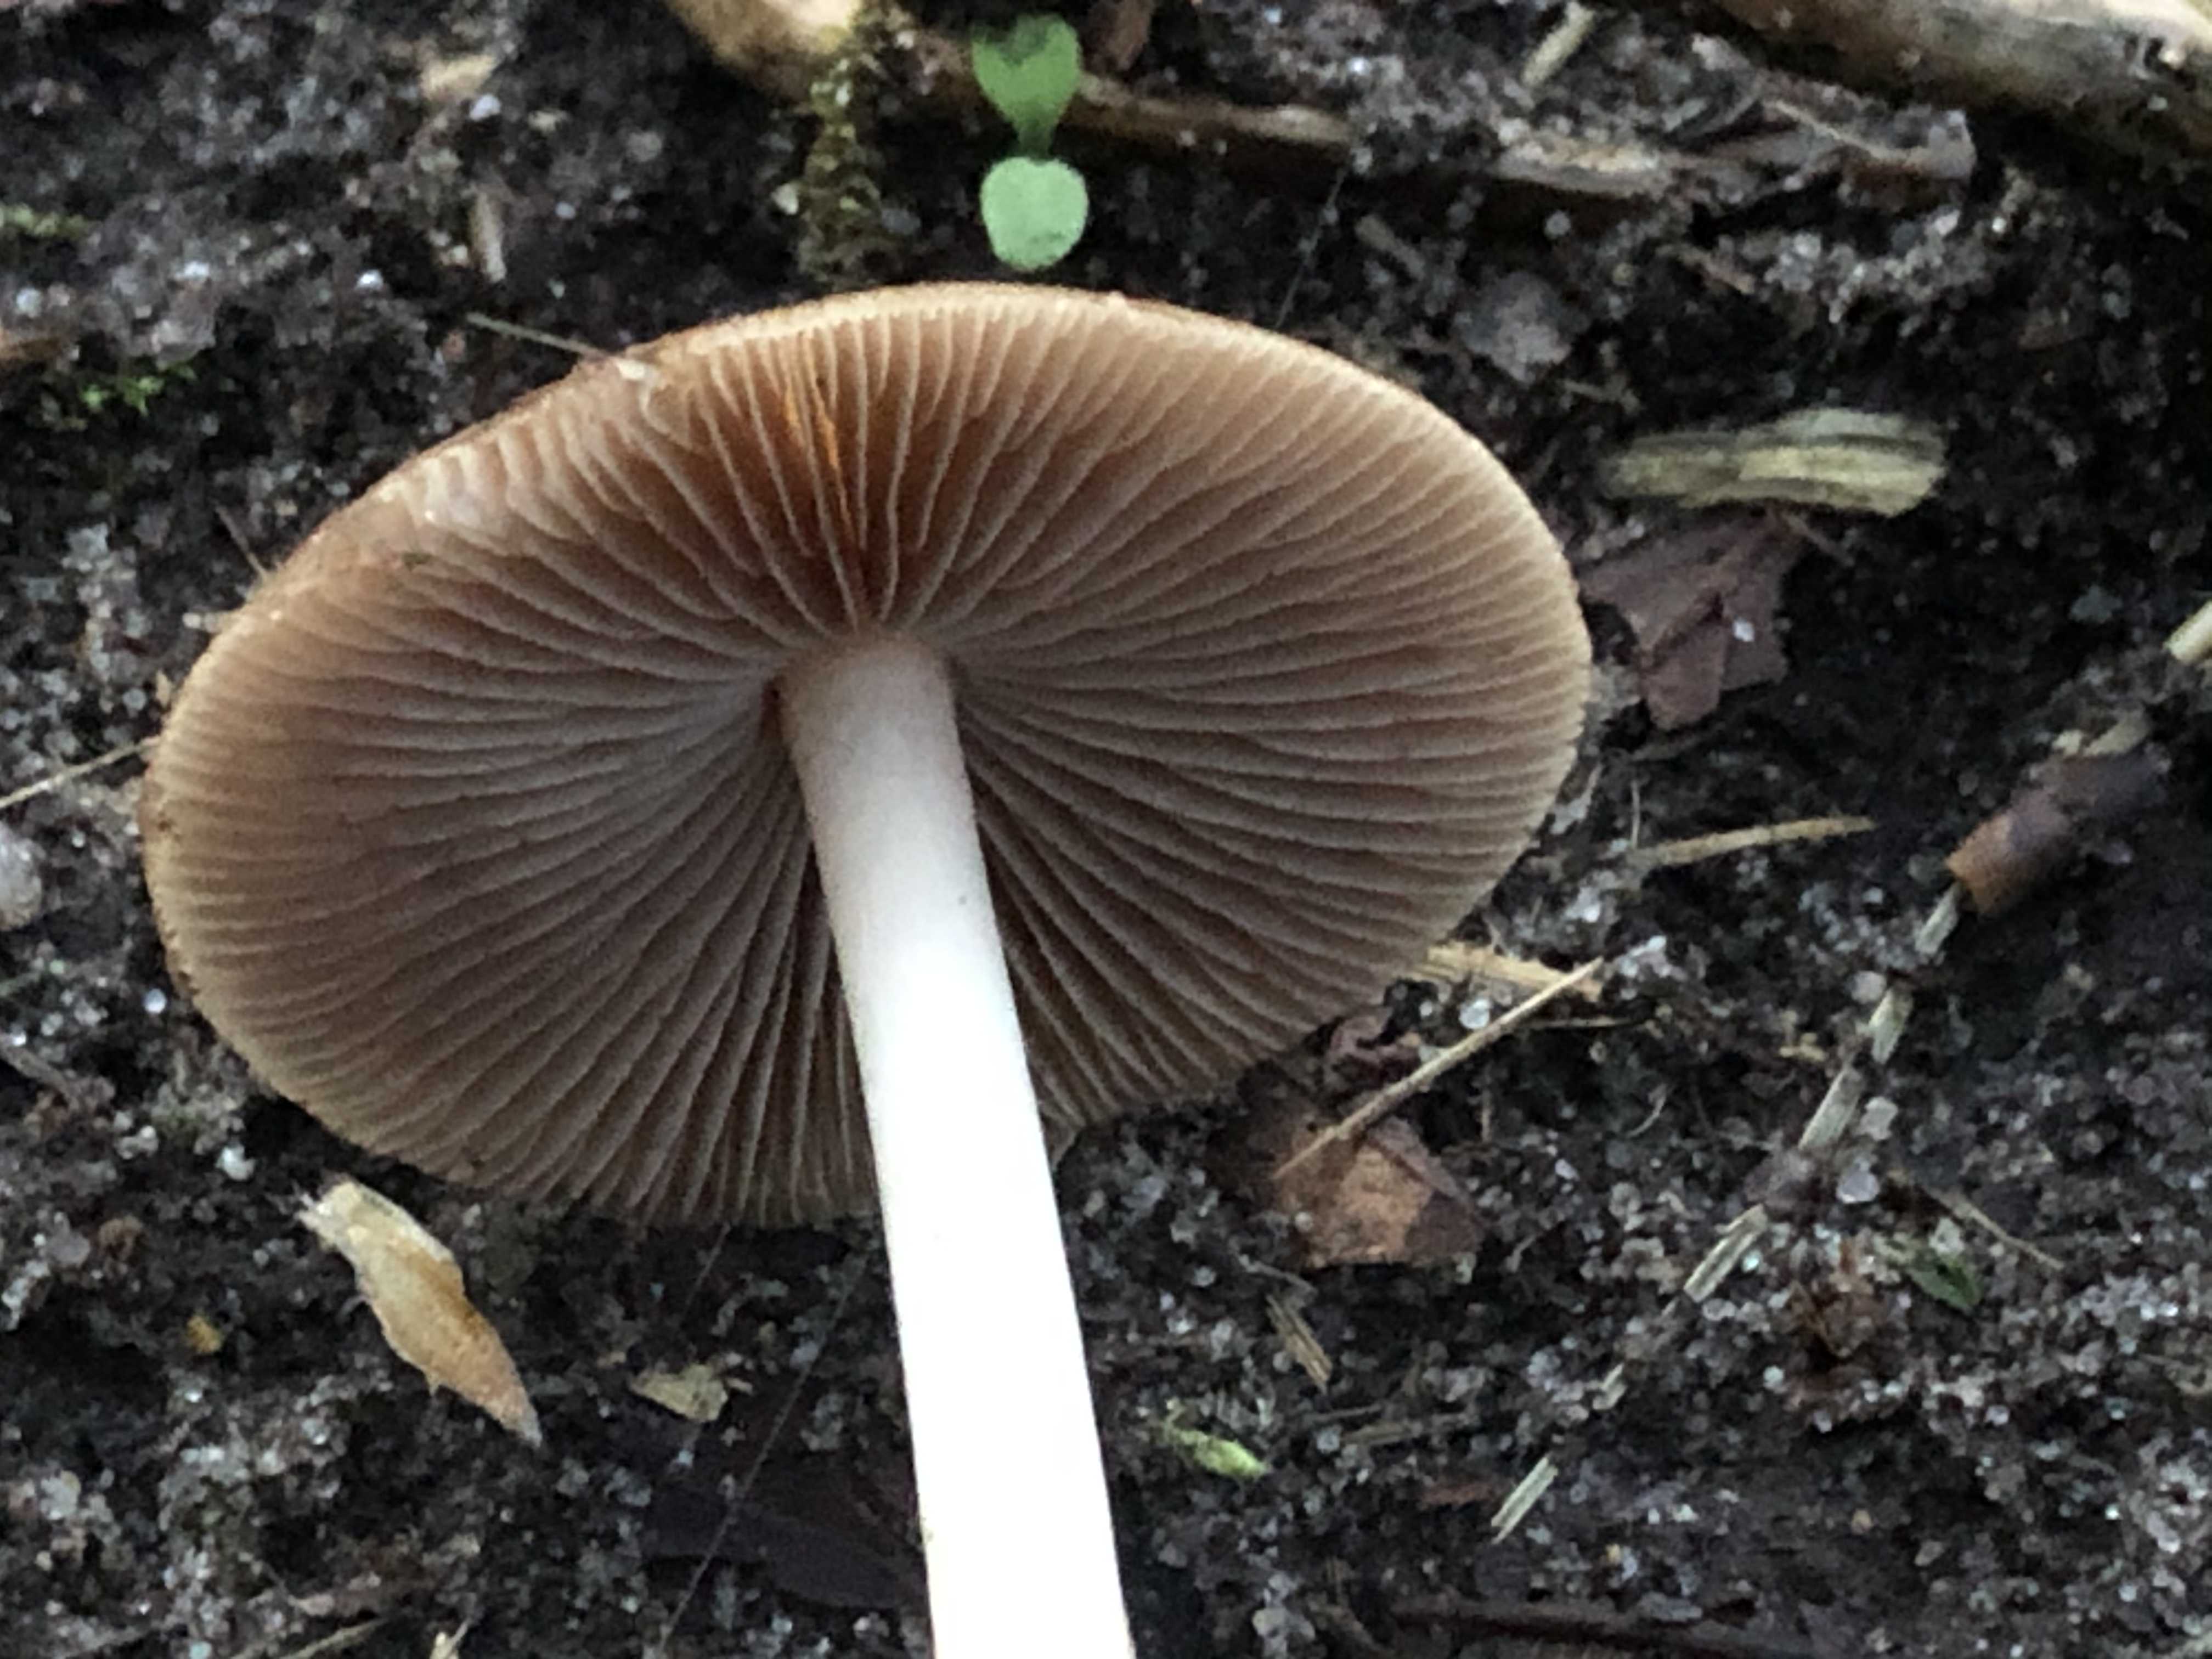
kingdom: Fungi
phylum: Basidiomycota
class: Agaricomycetes
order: Agaricales
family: Psathyrellaceae
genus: Psathyrella
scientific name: Psathyrella
